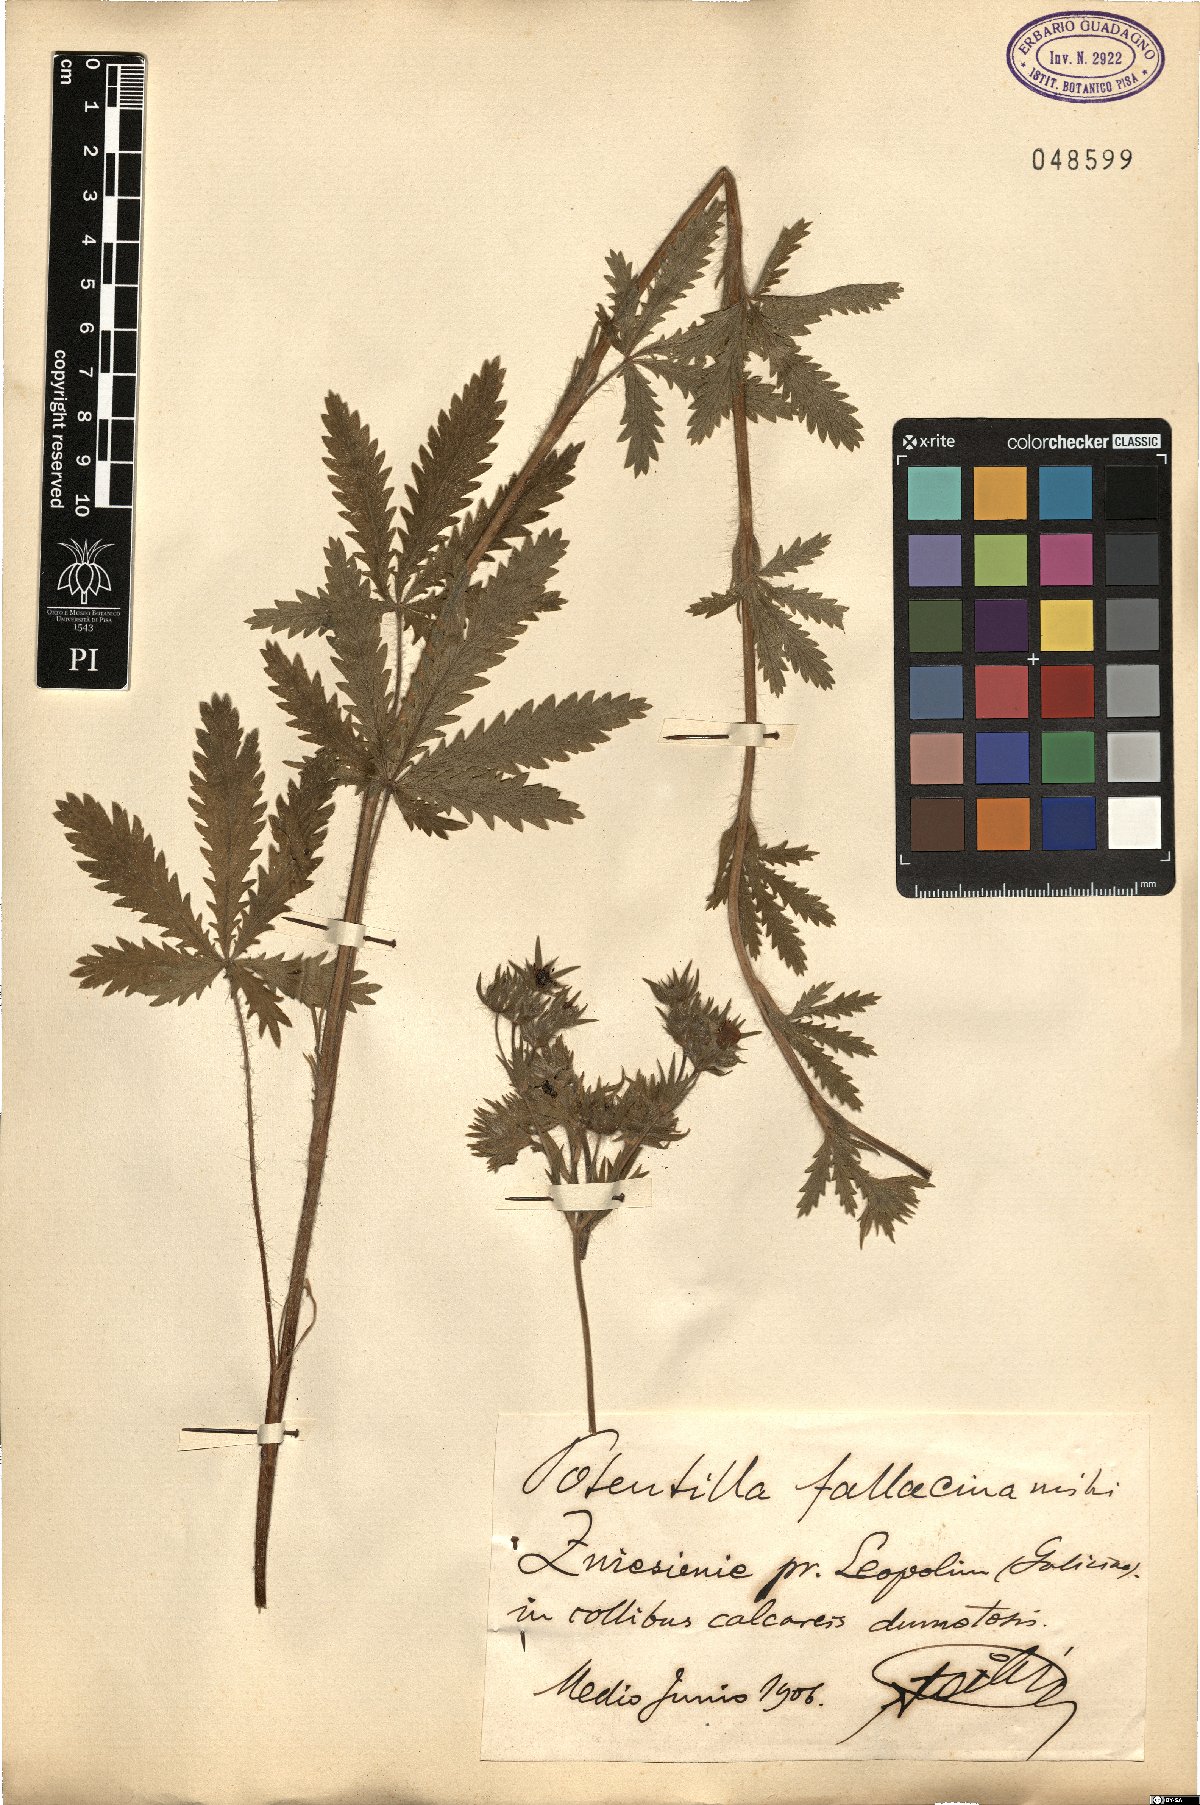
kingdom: Plantae
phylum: Tracheophyta
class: Magnoliopsida
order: Rosales
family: Rosaceae
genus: Potentilla
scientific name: Potentilla recta
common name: Sulphur cinquefoil
